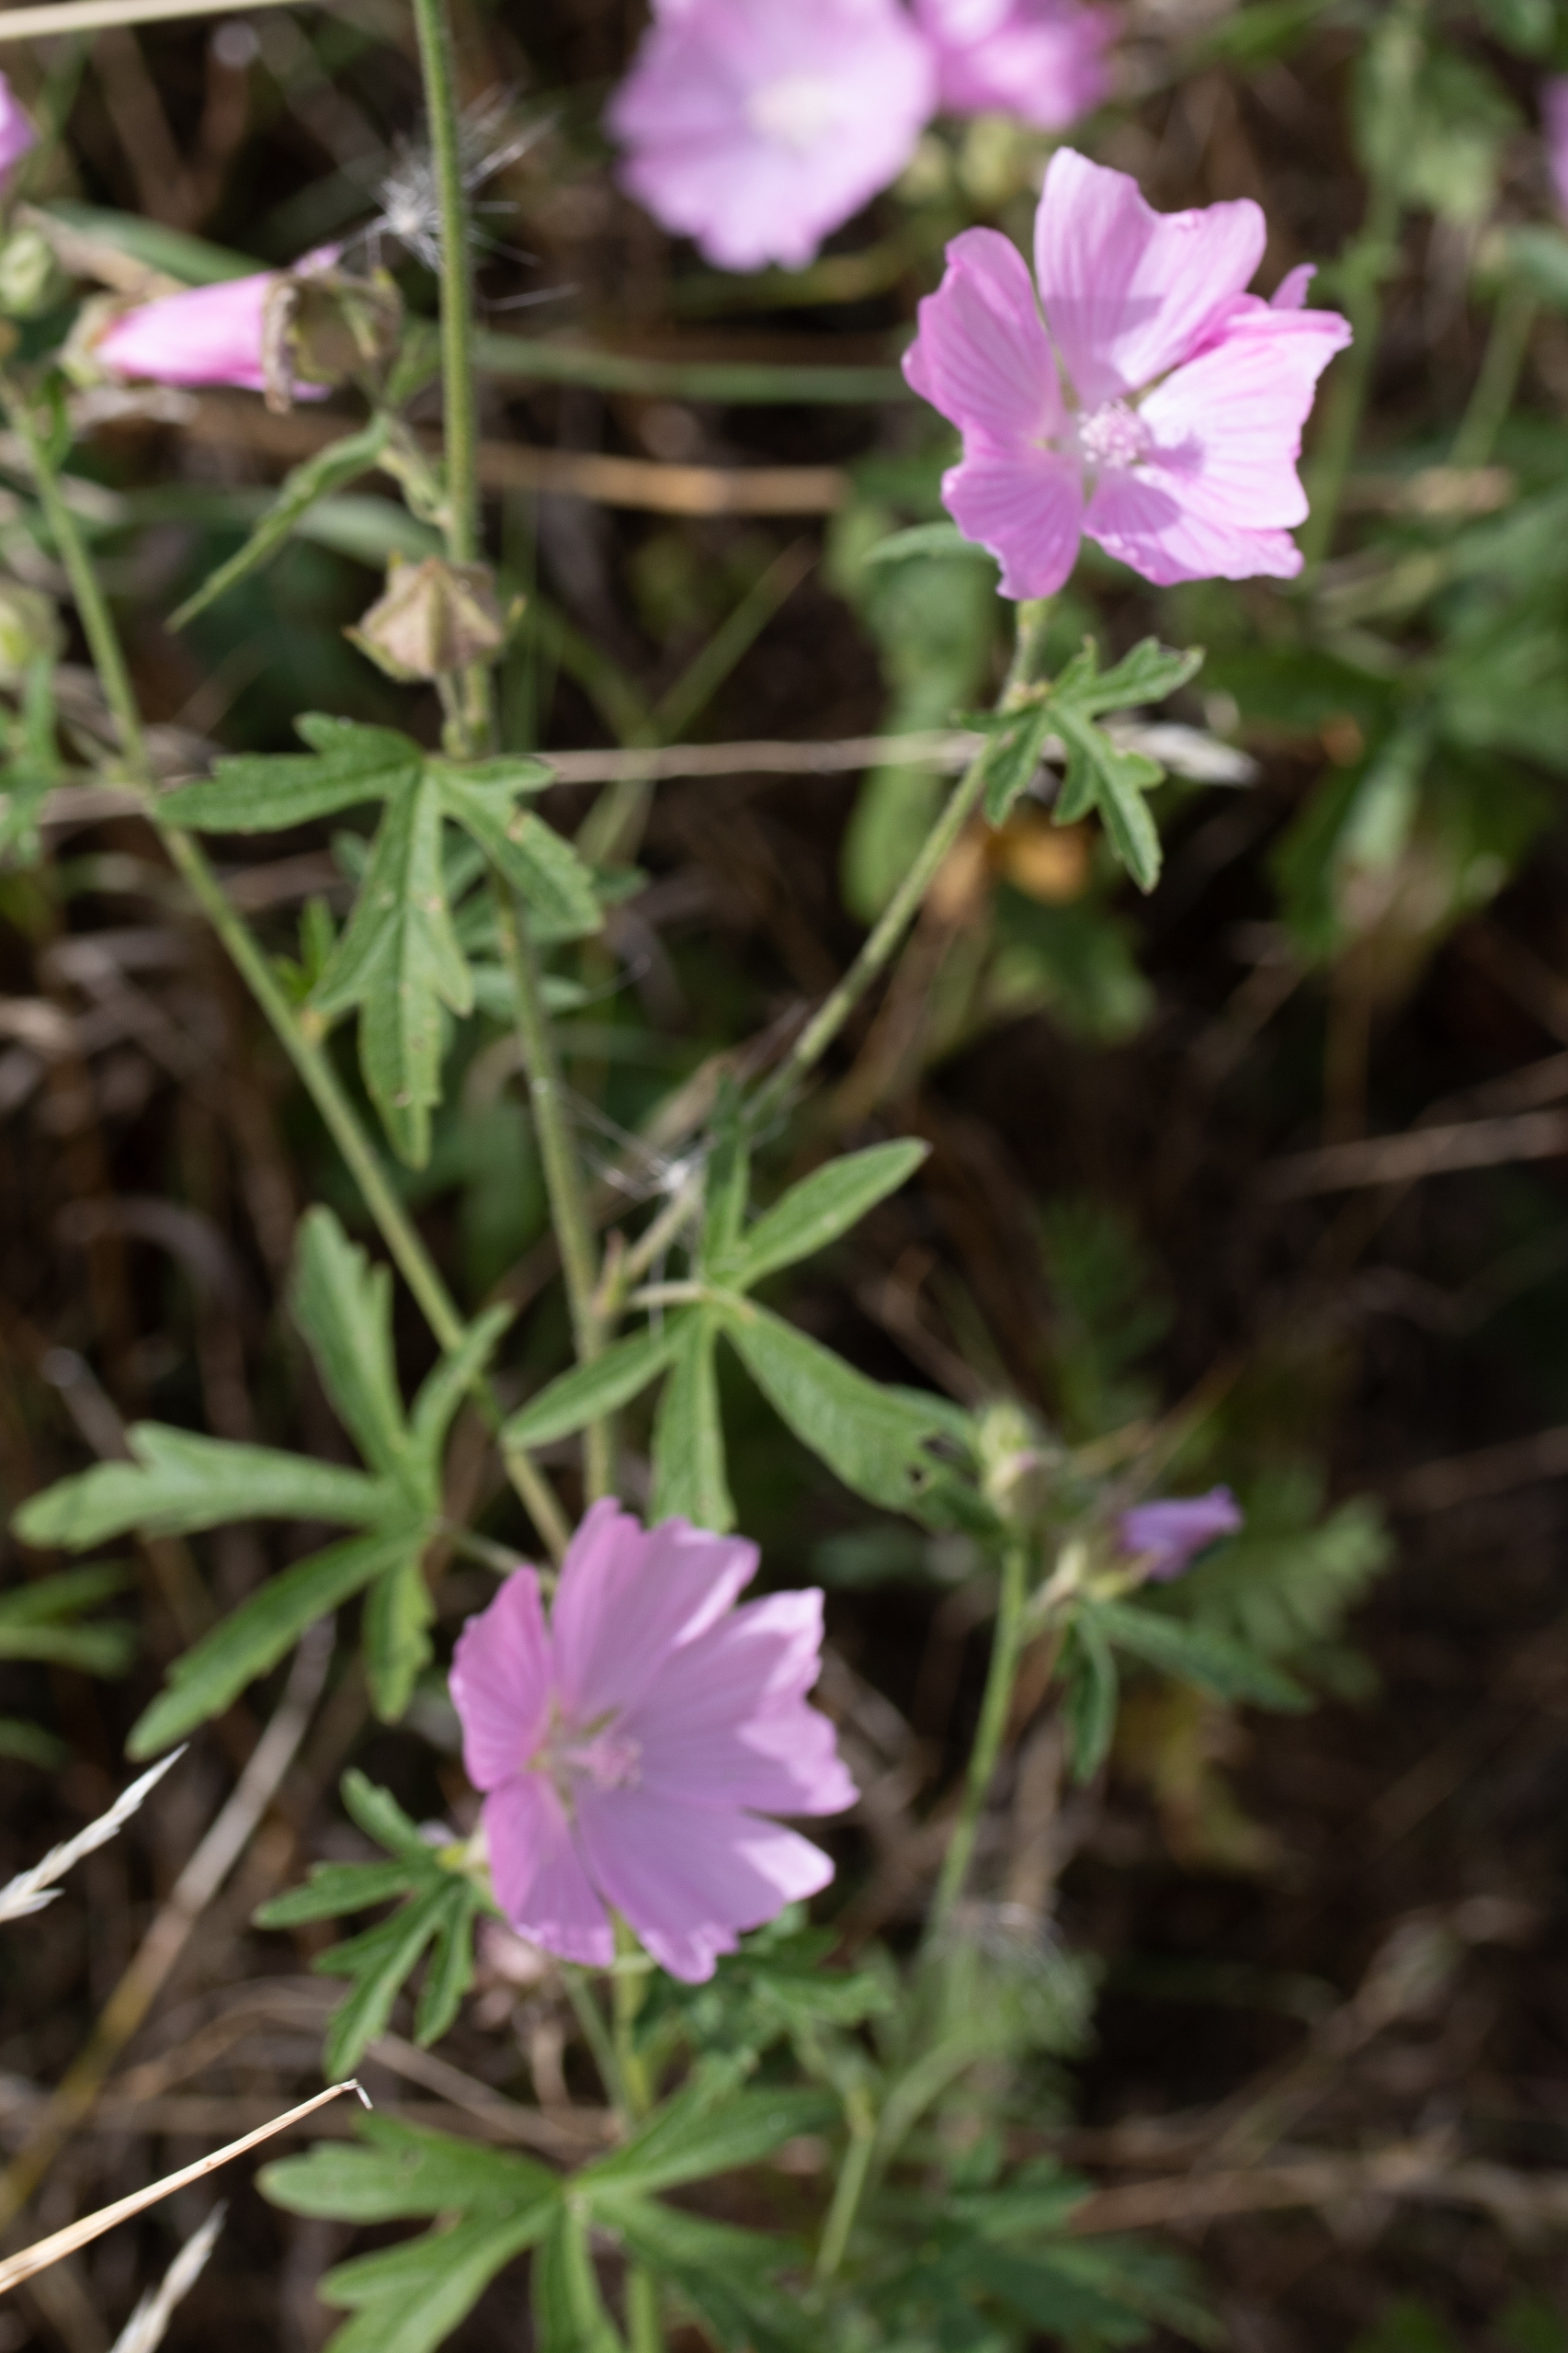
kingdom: Plantae
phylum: Tracheophyta
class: Magnoliopsida
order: Malvales
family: Malvaceae
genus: Malva
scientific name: Malva moschata
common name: Moskus-katost
